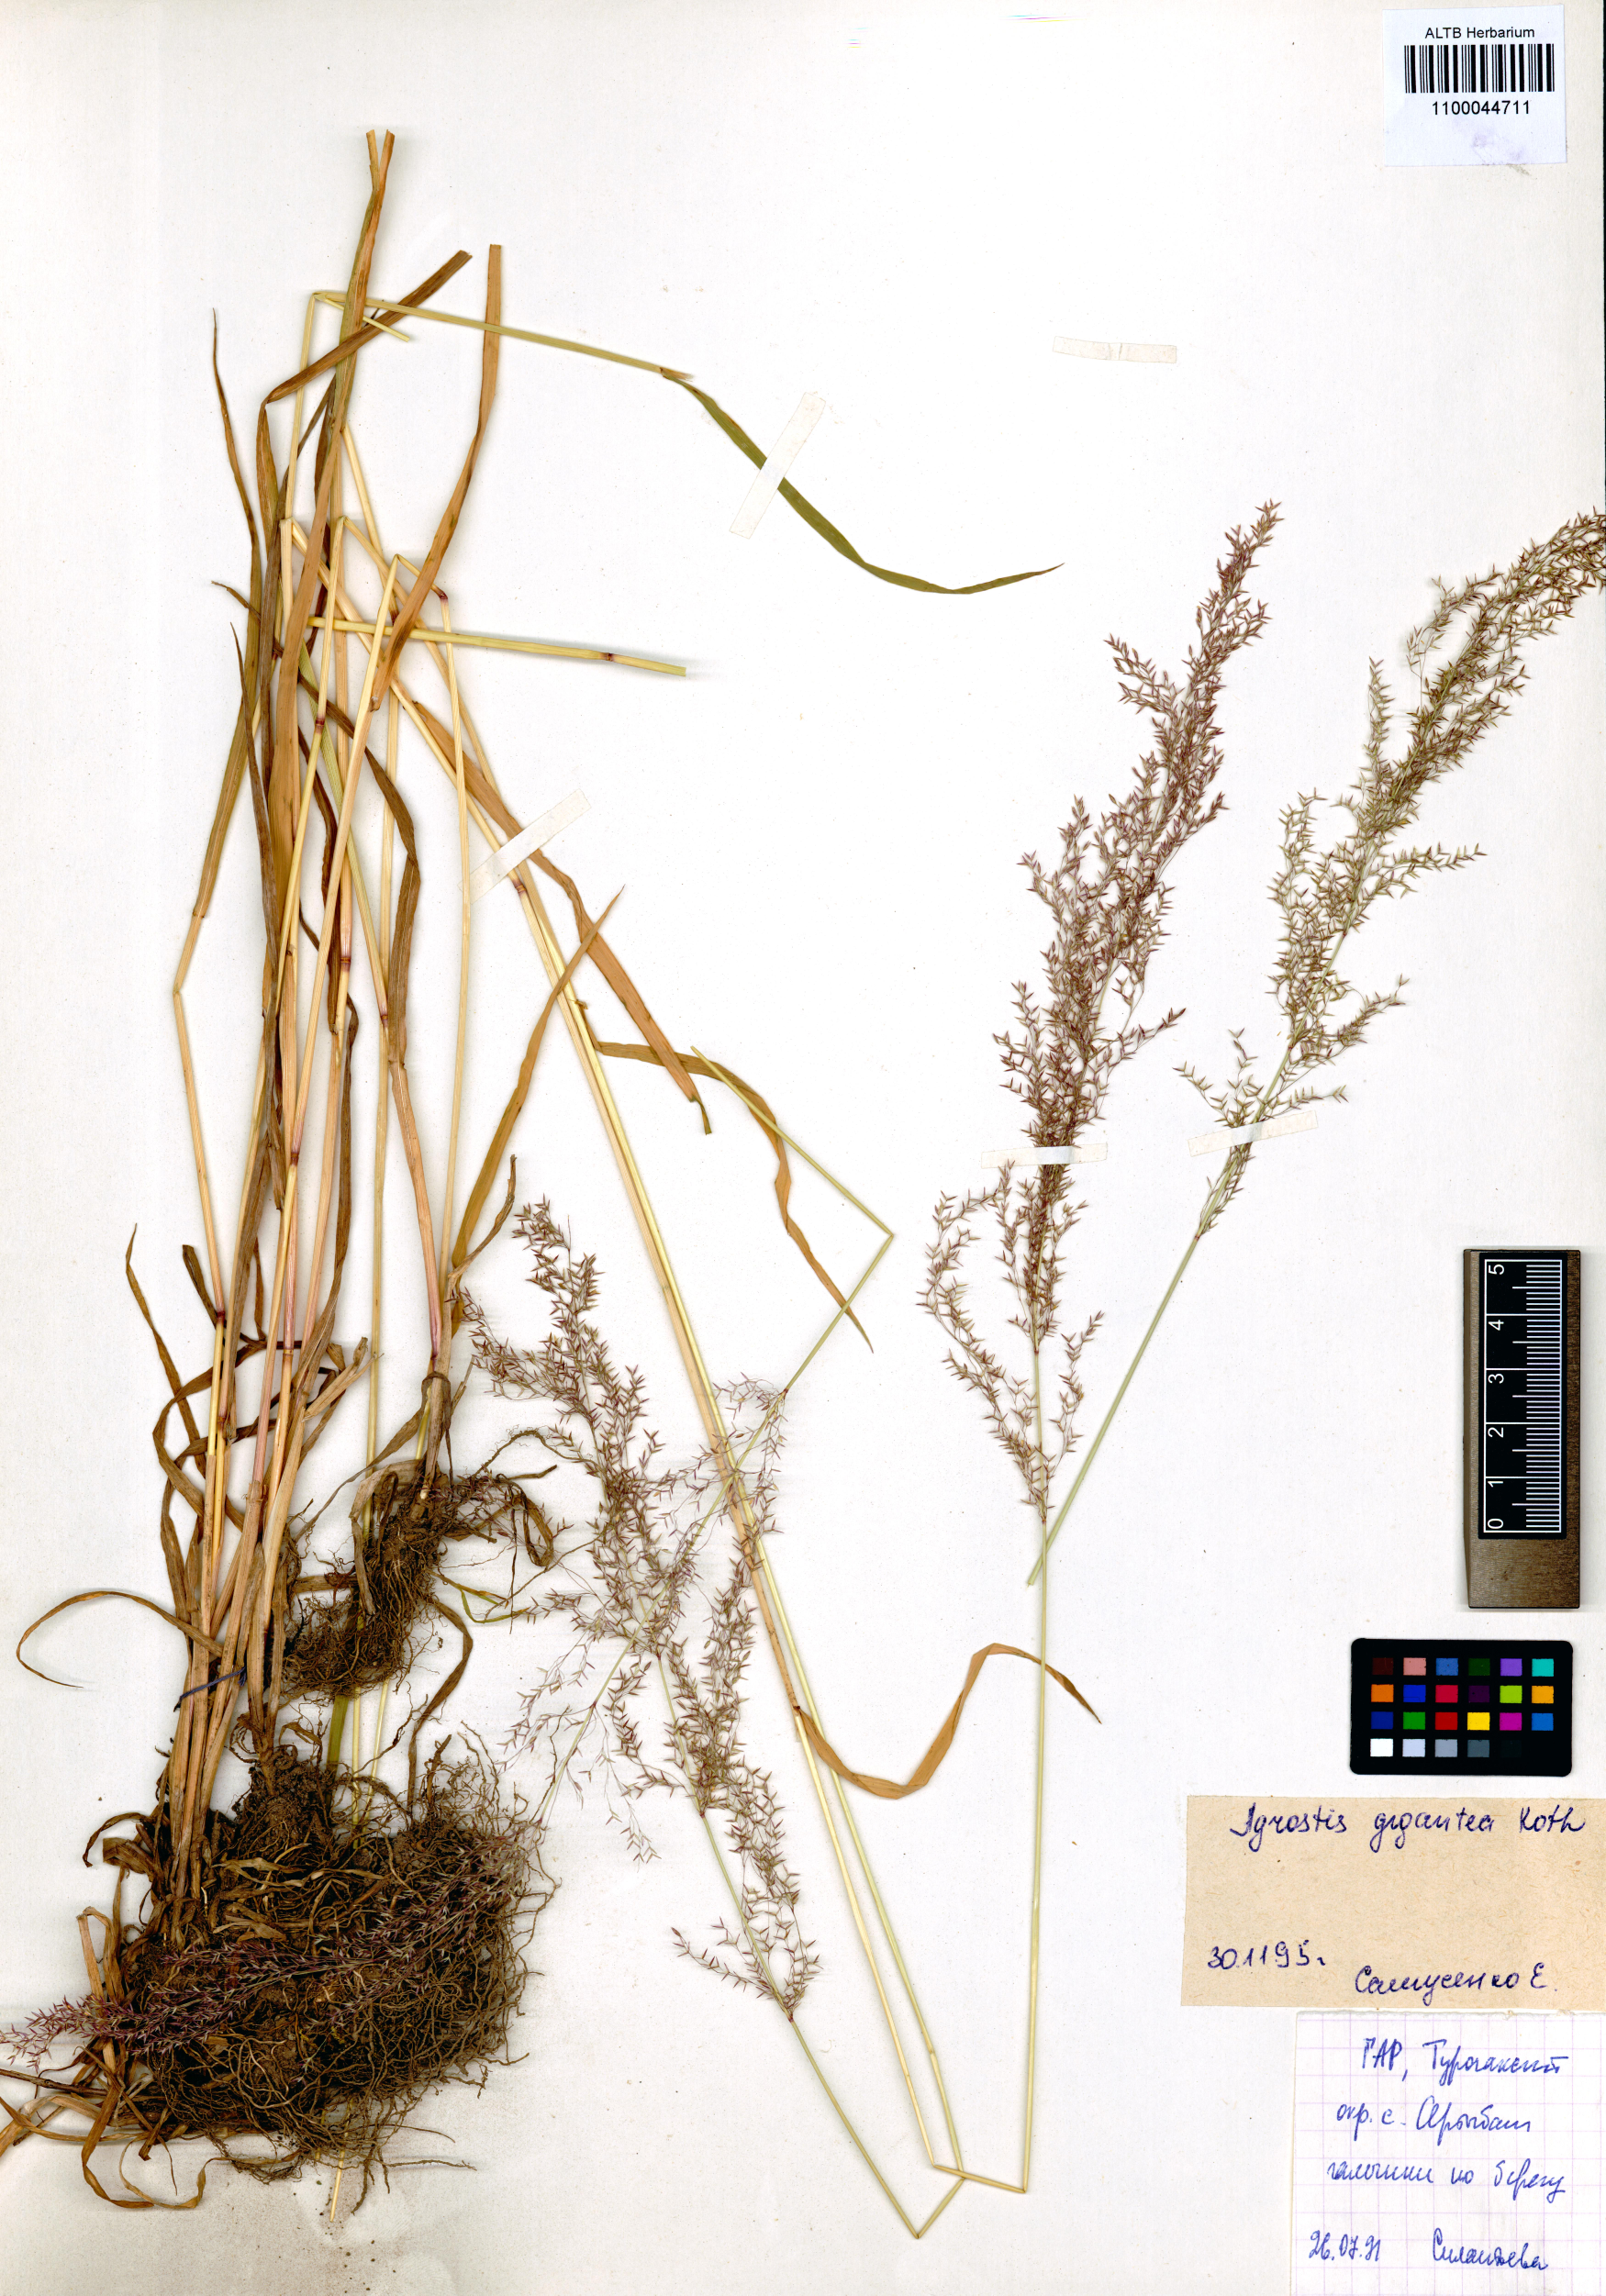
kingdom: Plantae
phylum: Tracheophyta
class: Liliopsida
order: Poales
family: Poaceae
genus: Agrostis
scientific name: Agrostis gigantea
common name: Black bent
